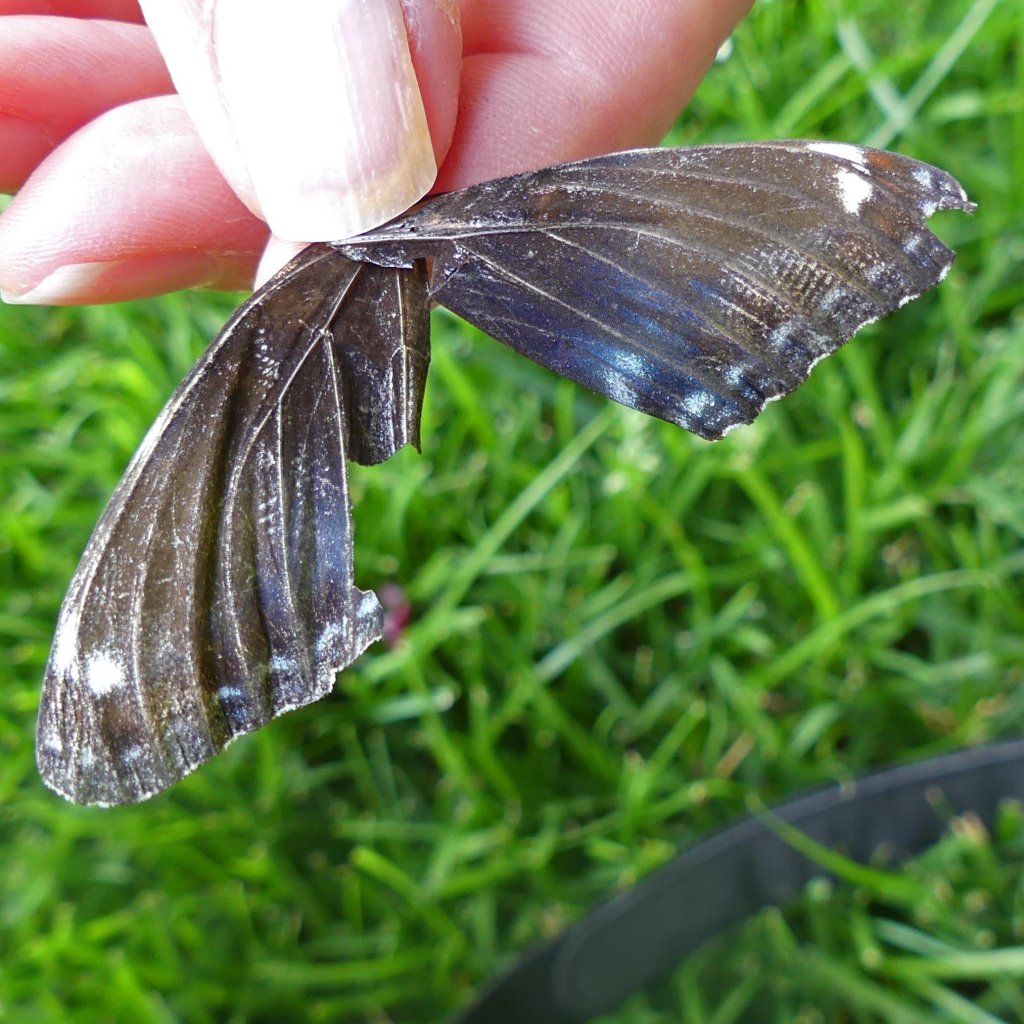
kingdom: Animalia
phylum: Arthropoda
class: Insecta
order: Lepidoptera
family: Nymphalidae
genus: Limenitis
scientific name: Limenitis astyanax
